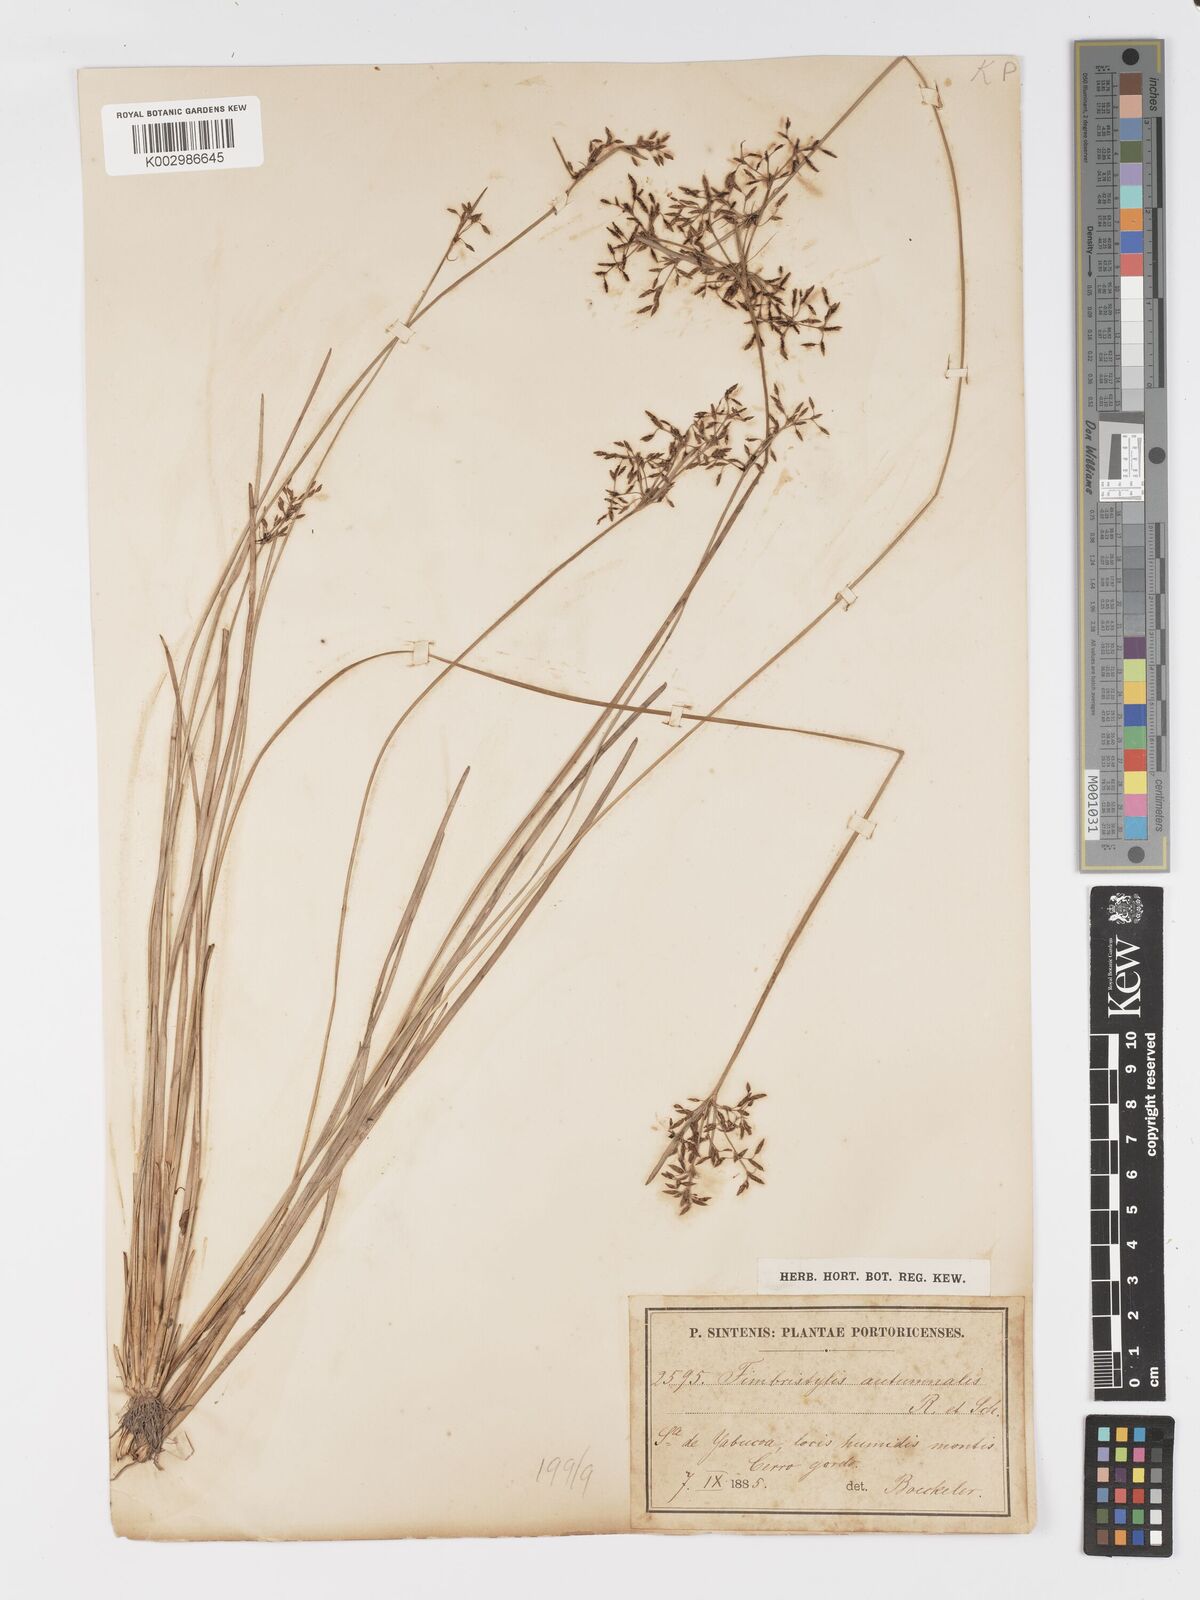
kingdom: Plantae
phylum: Tracheophyta
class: Liliopsida
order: Poales
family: Cyperaceae
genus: Fimbristylis
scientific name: Fimbristylis autumnalis
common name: Slender fimbristylis
